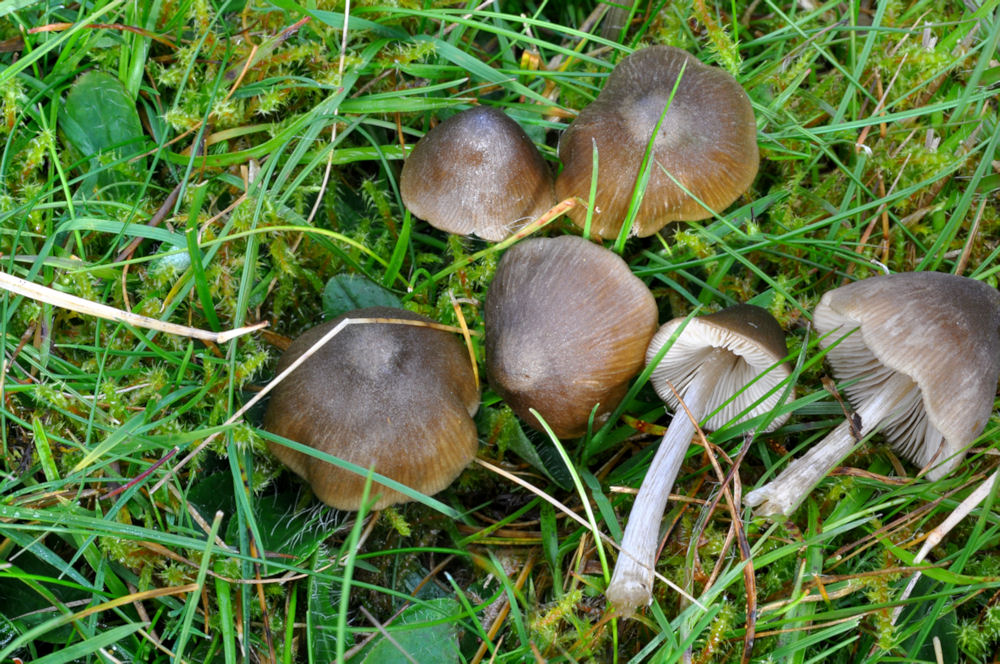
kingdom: Fungi
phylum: Basidiomycota
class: Agaricomycetes
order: Agaricales
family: Entolomataceae
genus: Entoloma
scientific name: Entoloma conferendum
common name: stjernesporet rødblad
